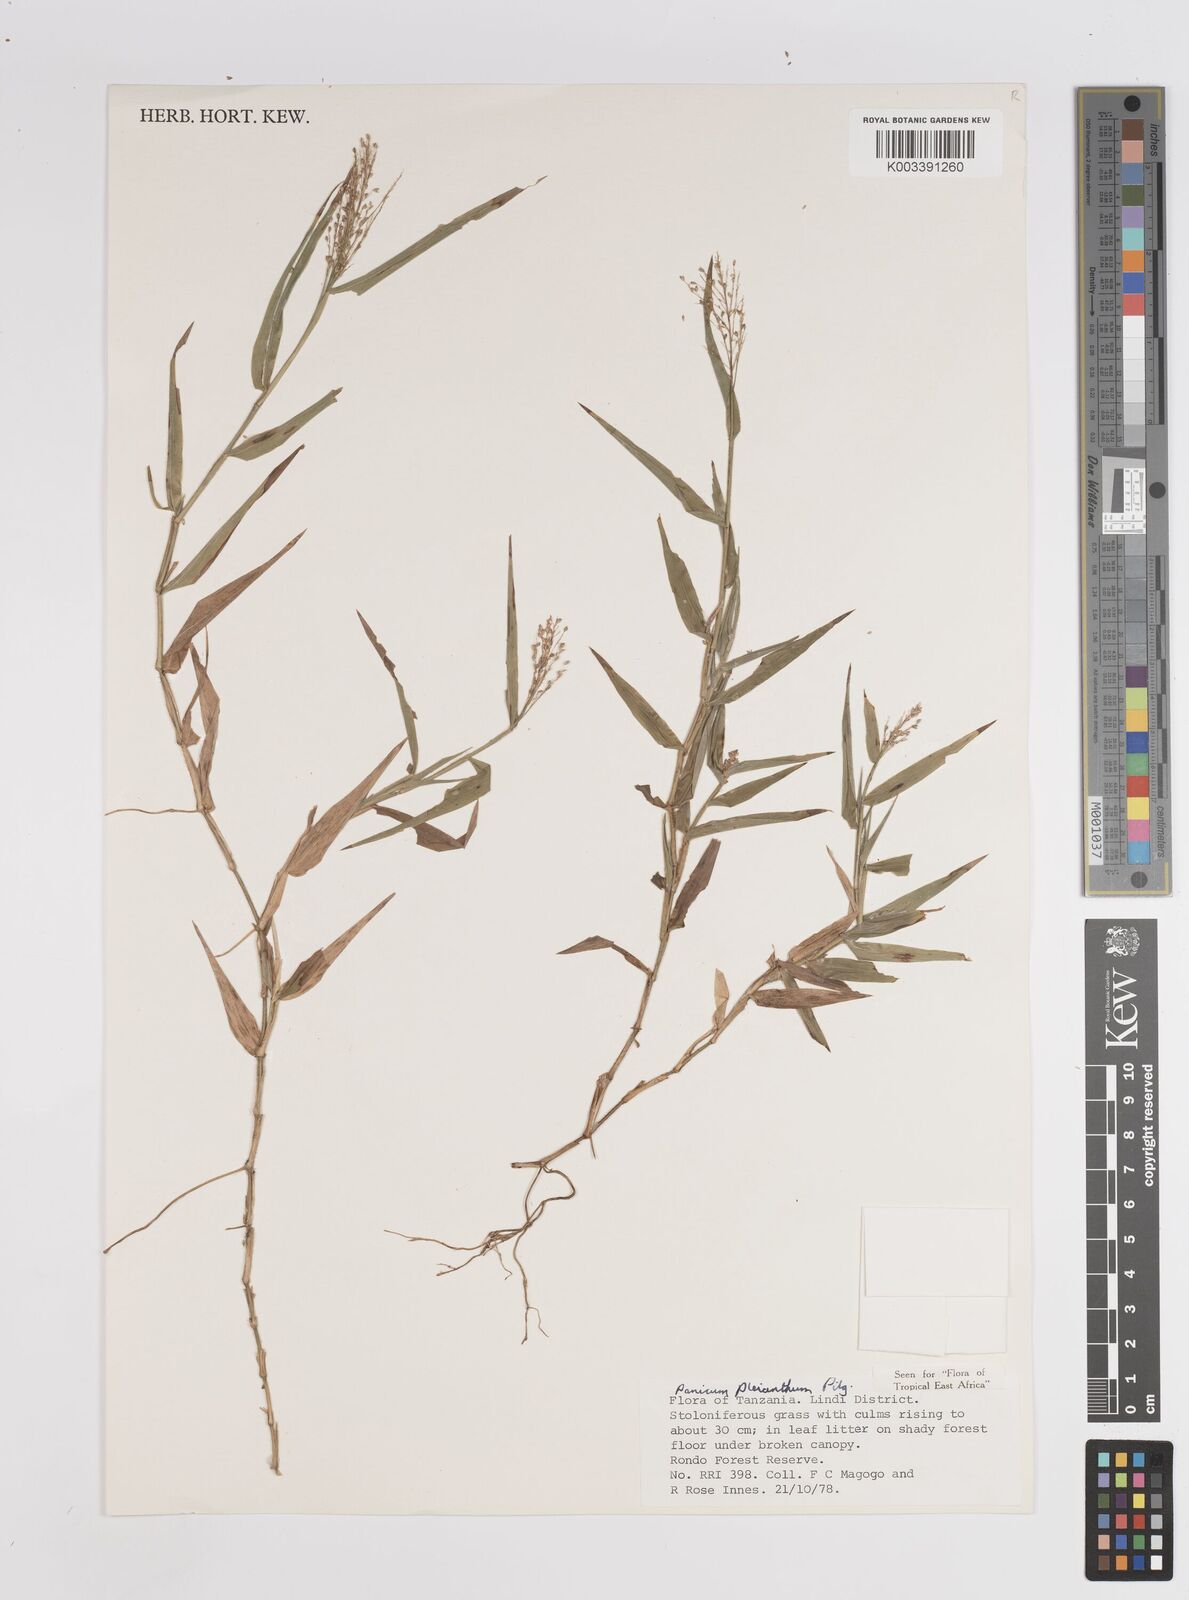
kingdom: Plantae
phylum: Tracheophyta
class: Liliopsida
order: Poales
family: Poaceae
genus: Panicum
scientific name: Panicum pleianthum
